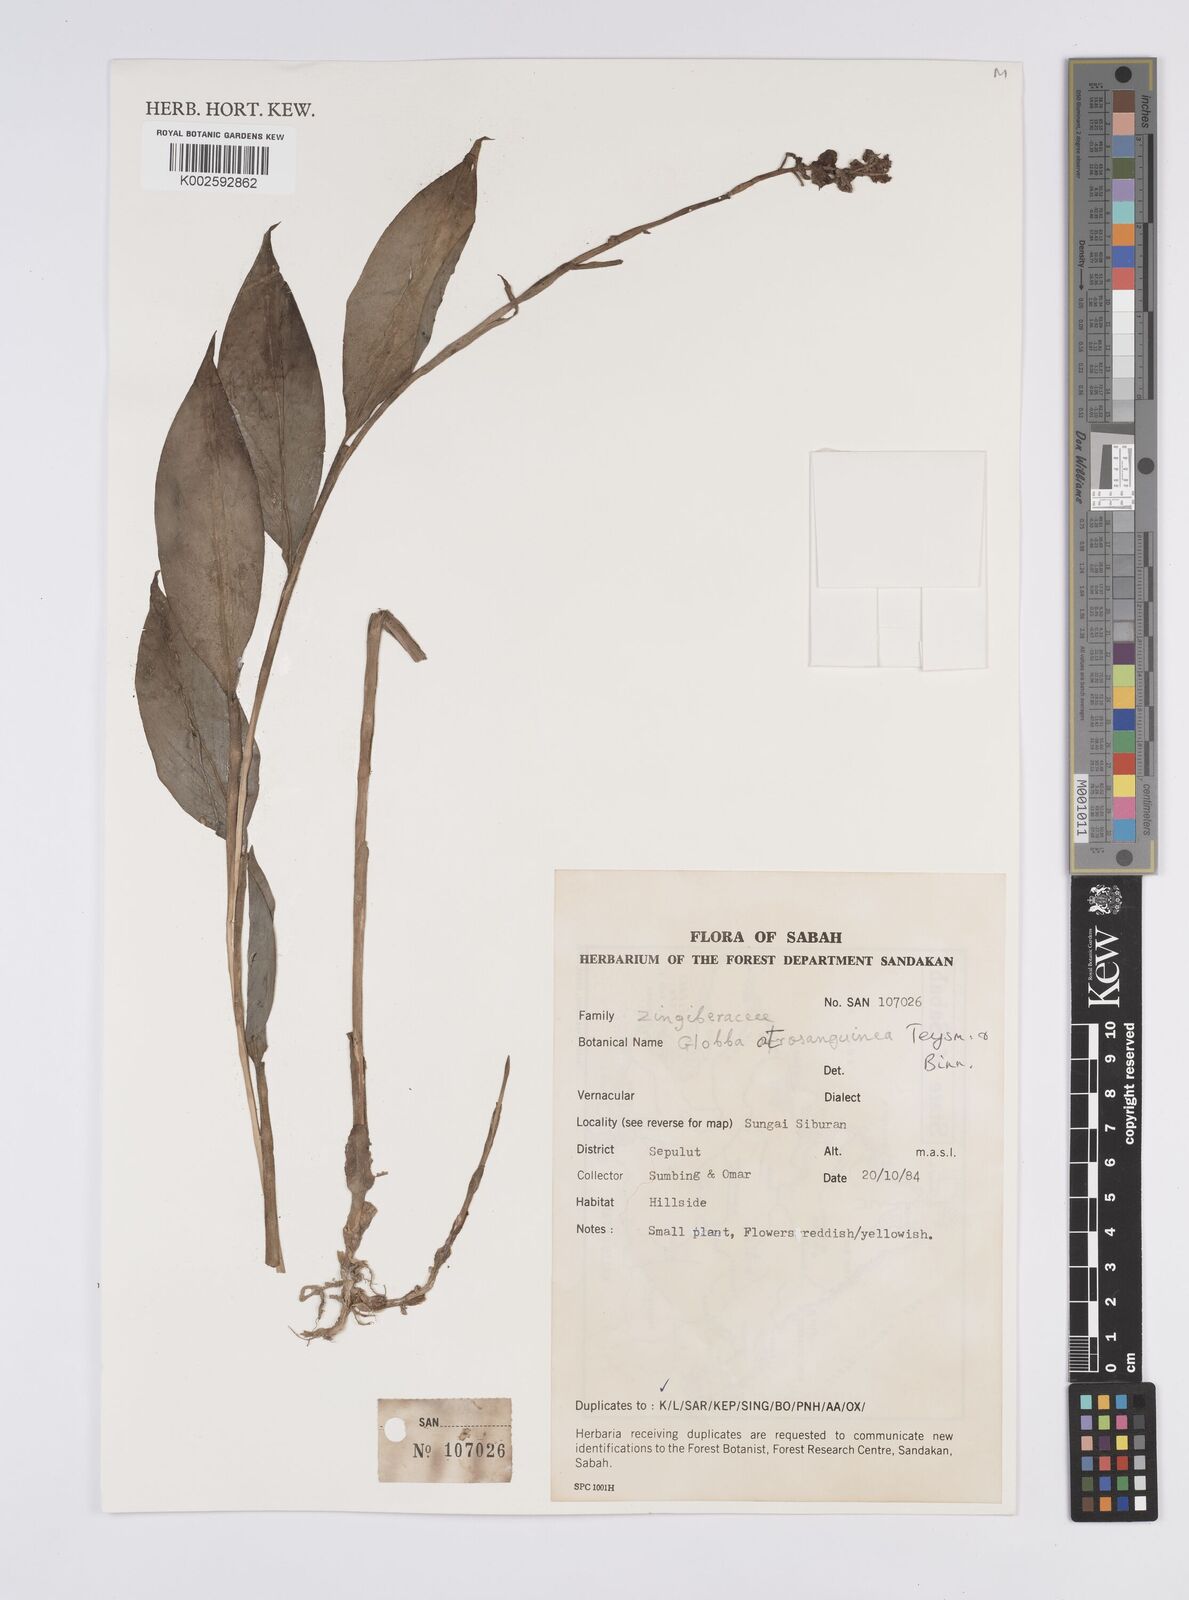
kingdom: Plantae
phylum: Tracheophyta
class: Liliopsida
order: Zingiberales
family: Zingiberaceae
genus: Globba
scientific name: Globba atrosanguinea
